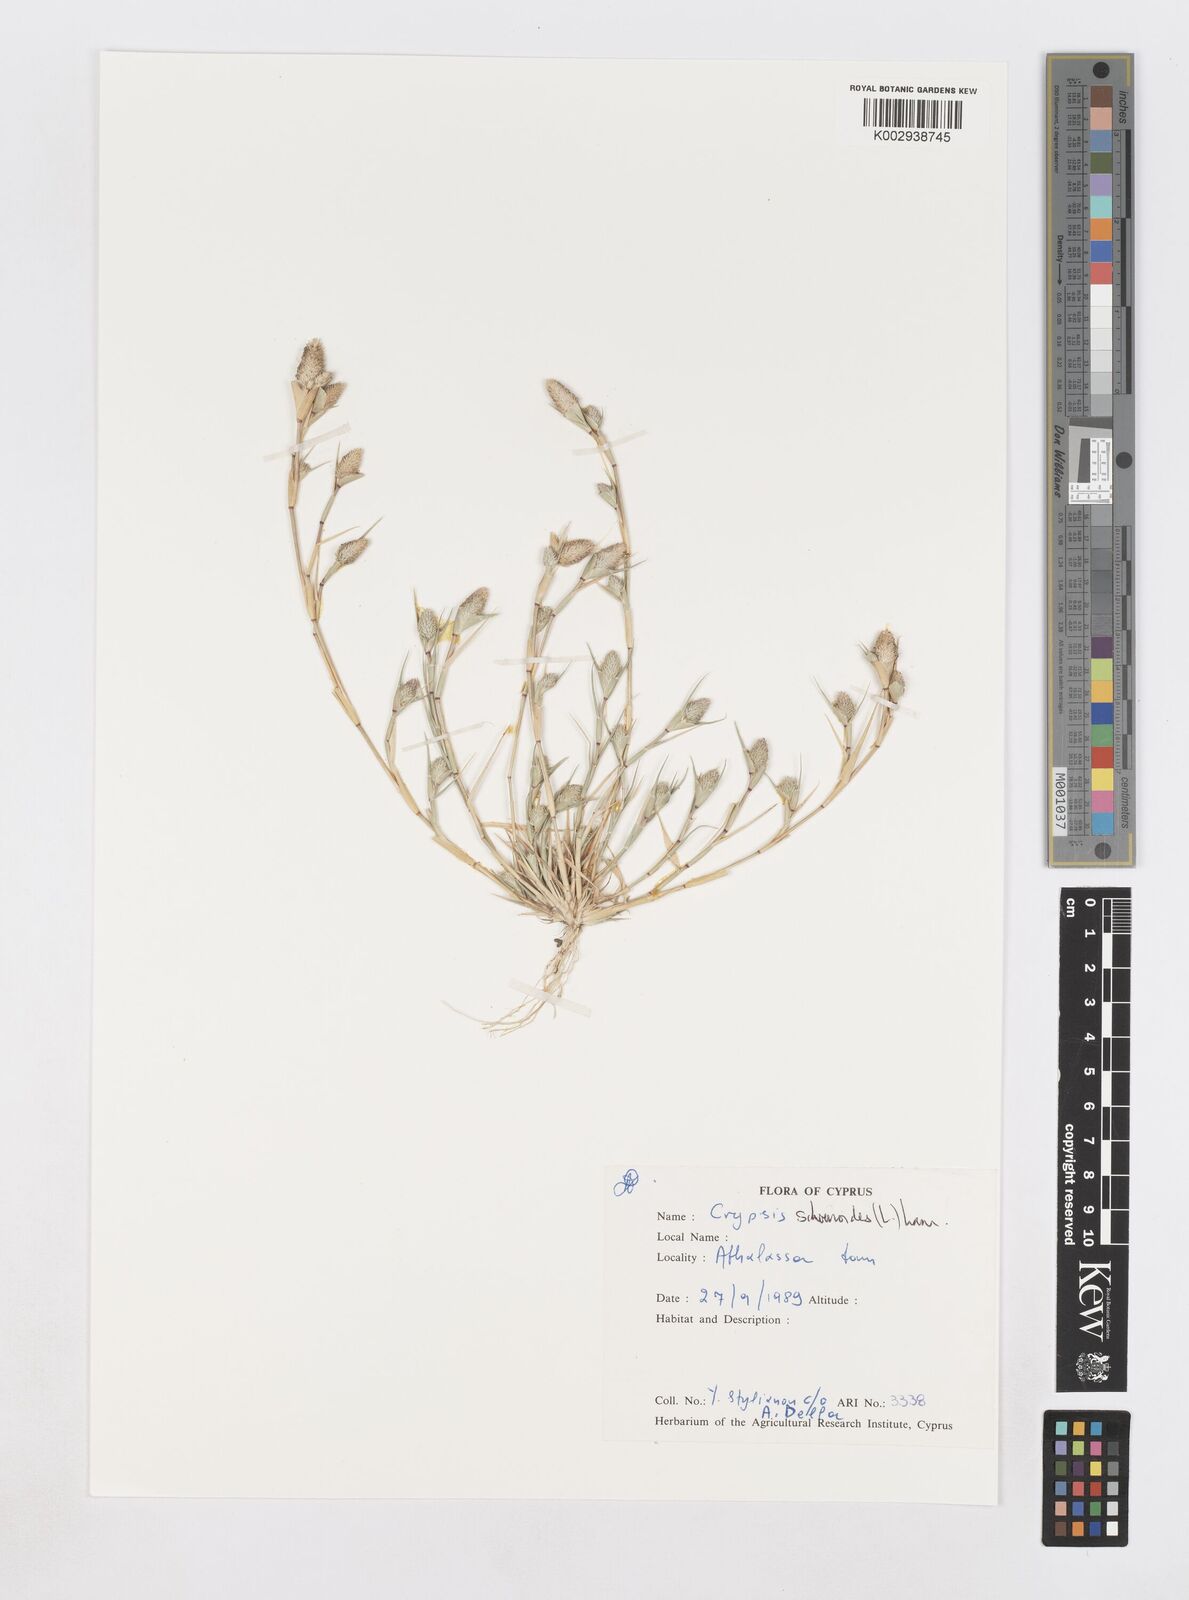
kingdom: Plantae
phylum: Tracheophyta
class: Liliopsida
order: Poales
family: Poaceae
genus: Sporobolus
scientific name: Sporobolus schoenoides
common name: Rush-like timothy
